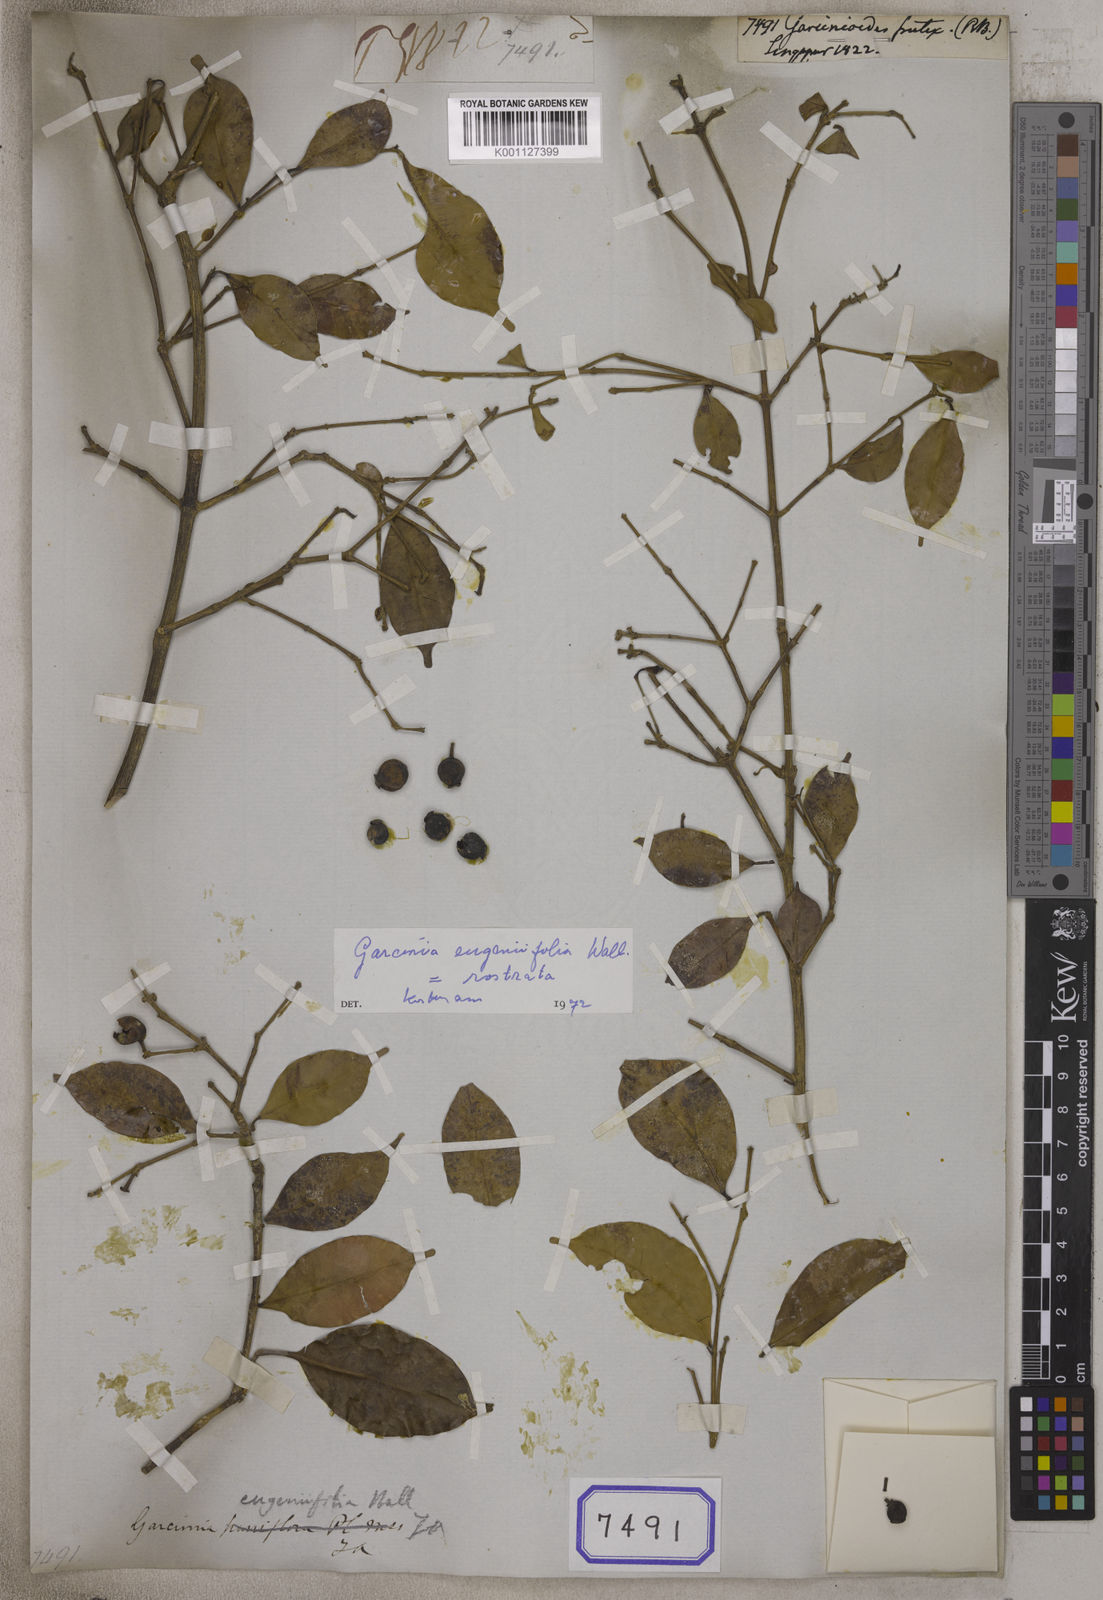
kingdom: Plantae
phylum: Tracheophyta
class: Magnoliopsida
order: Malpighiales
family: Clusiaceae
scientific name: Clusiaceae
